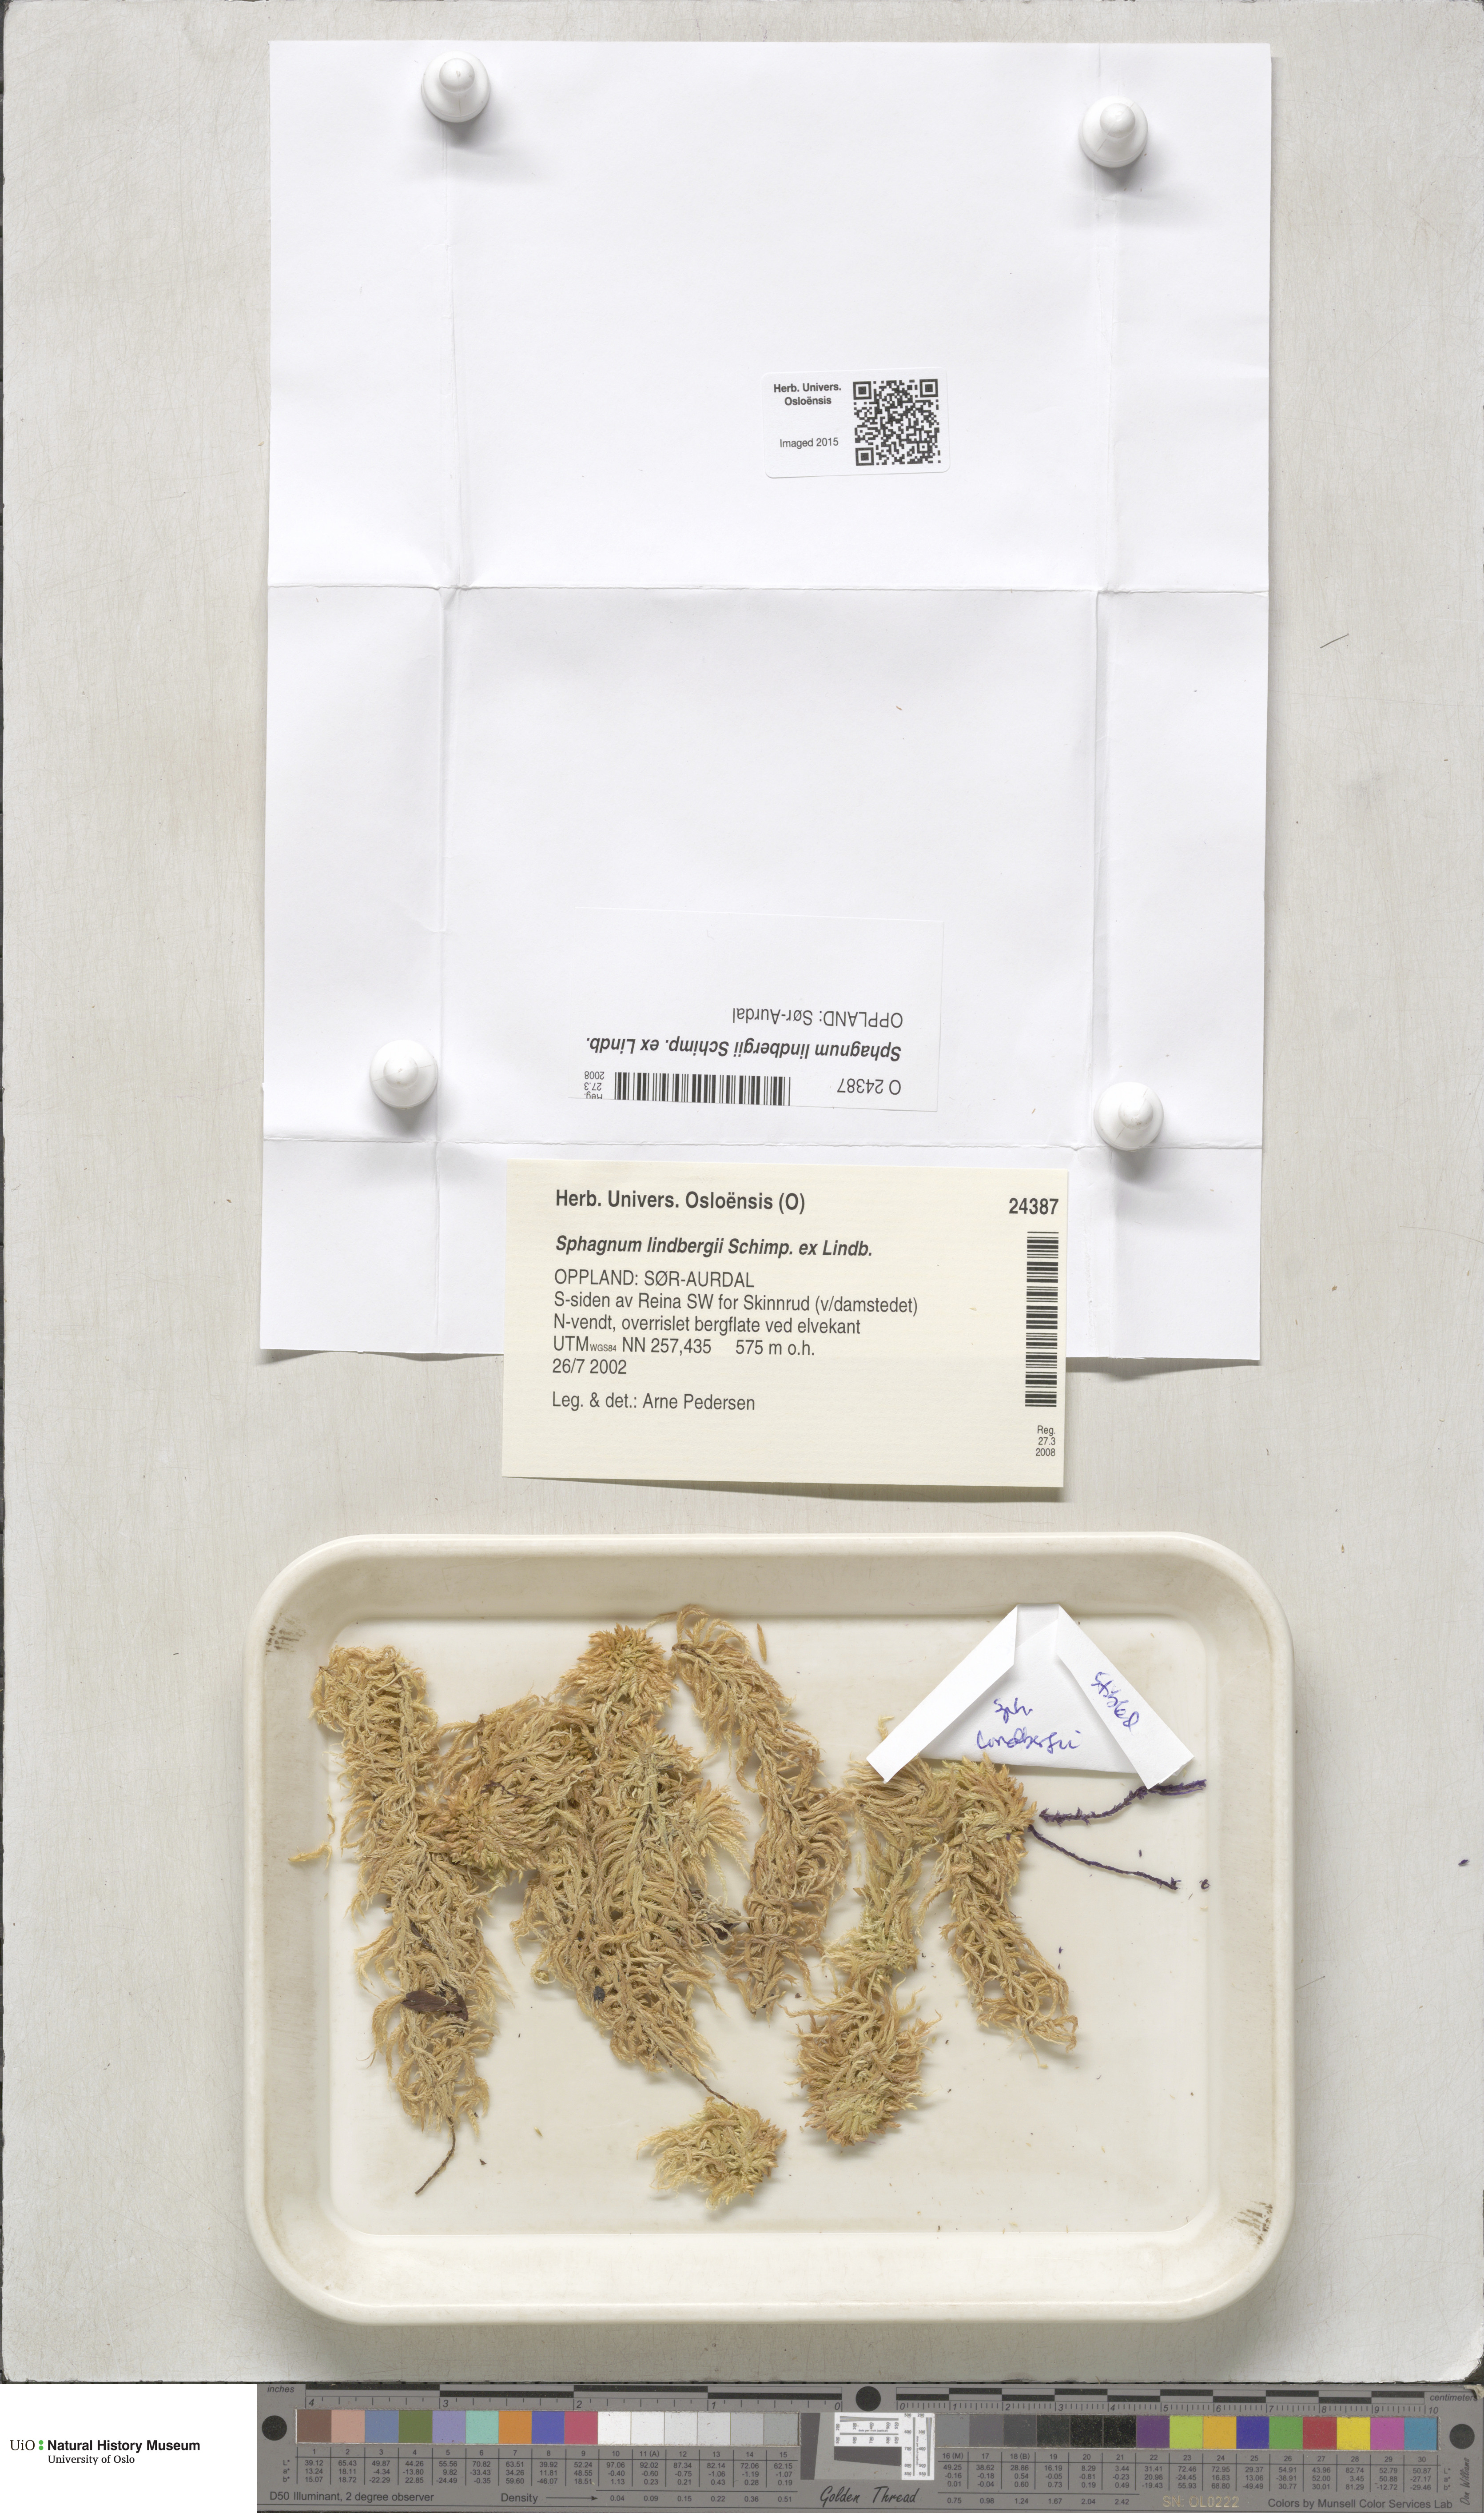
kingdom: Plantae
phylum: Bryophyta
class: Sphagnopsida
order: Sphagnales
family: Sphagnaceae
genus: Sphagnum
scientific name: Sphagnum lindbergii
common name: Lindberg's peat moss
